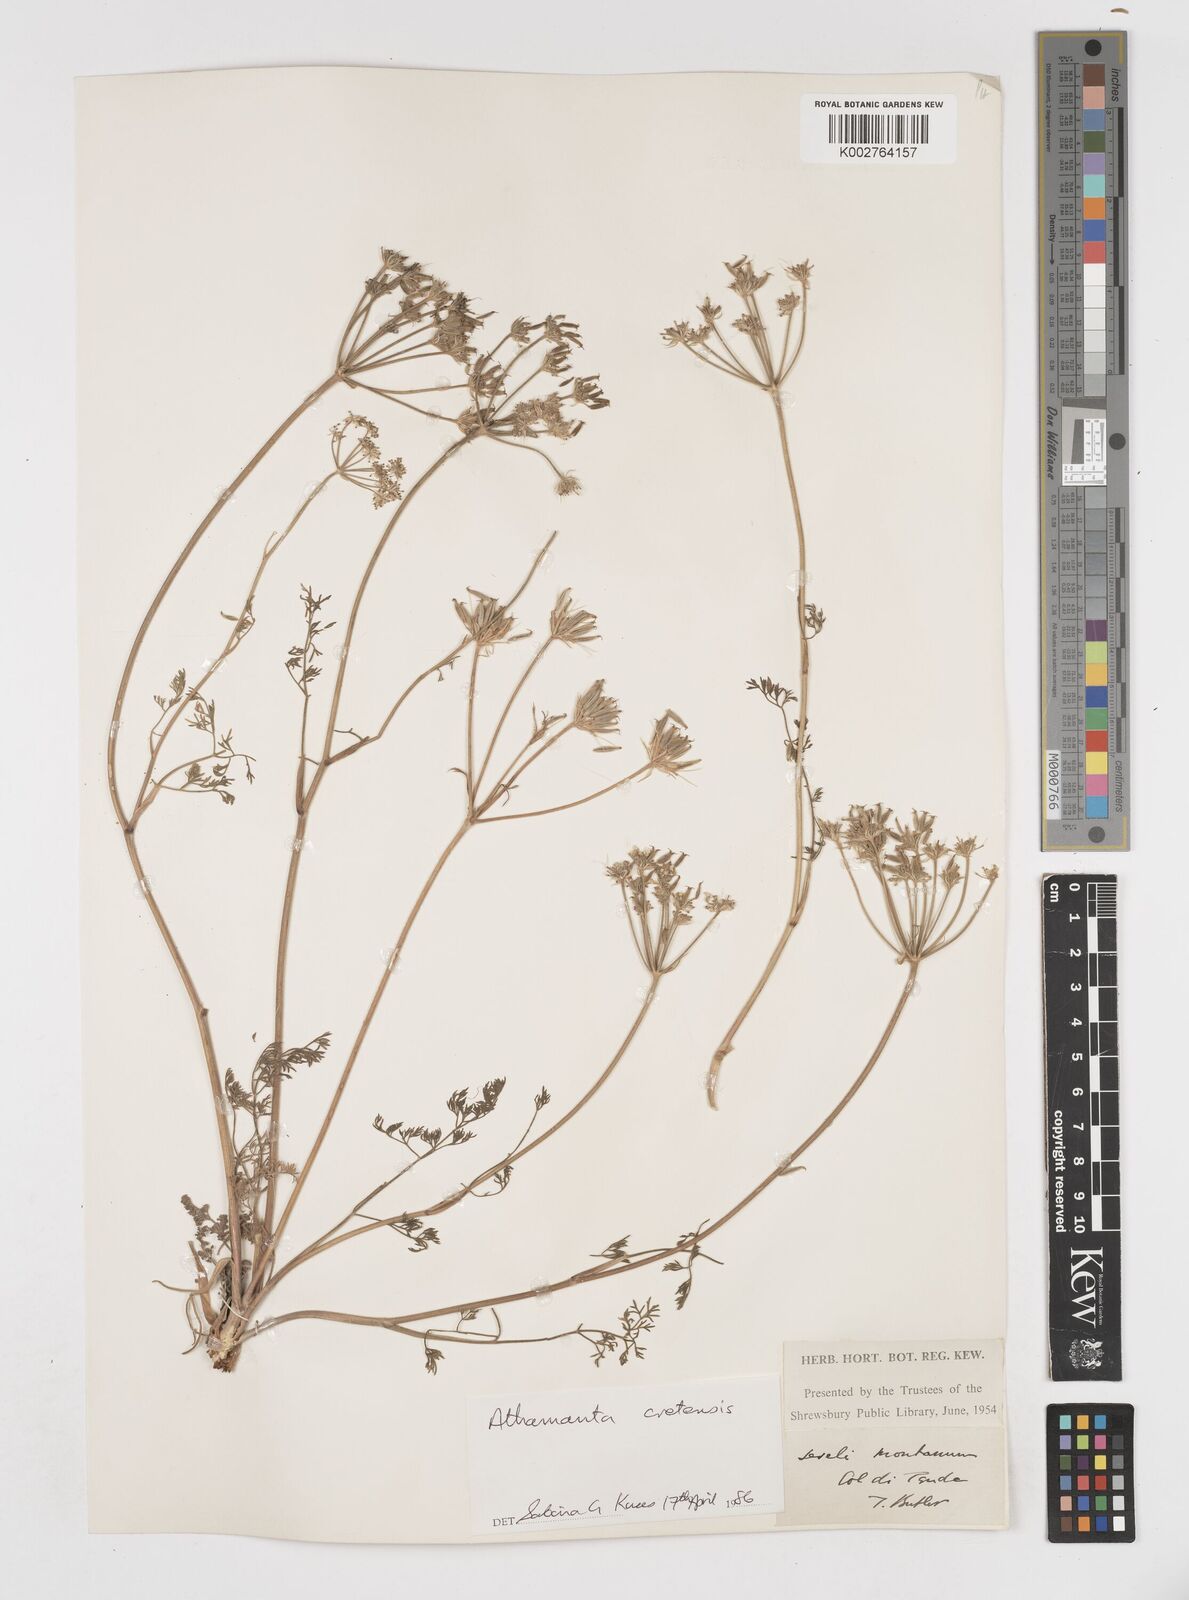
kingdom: Plantae
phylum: Tracheophyta
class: Magnoliopsida
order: Apiales
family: Apiaceae
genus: Athamanta
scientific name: Athamanta cretensis
